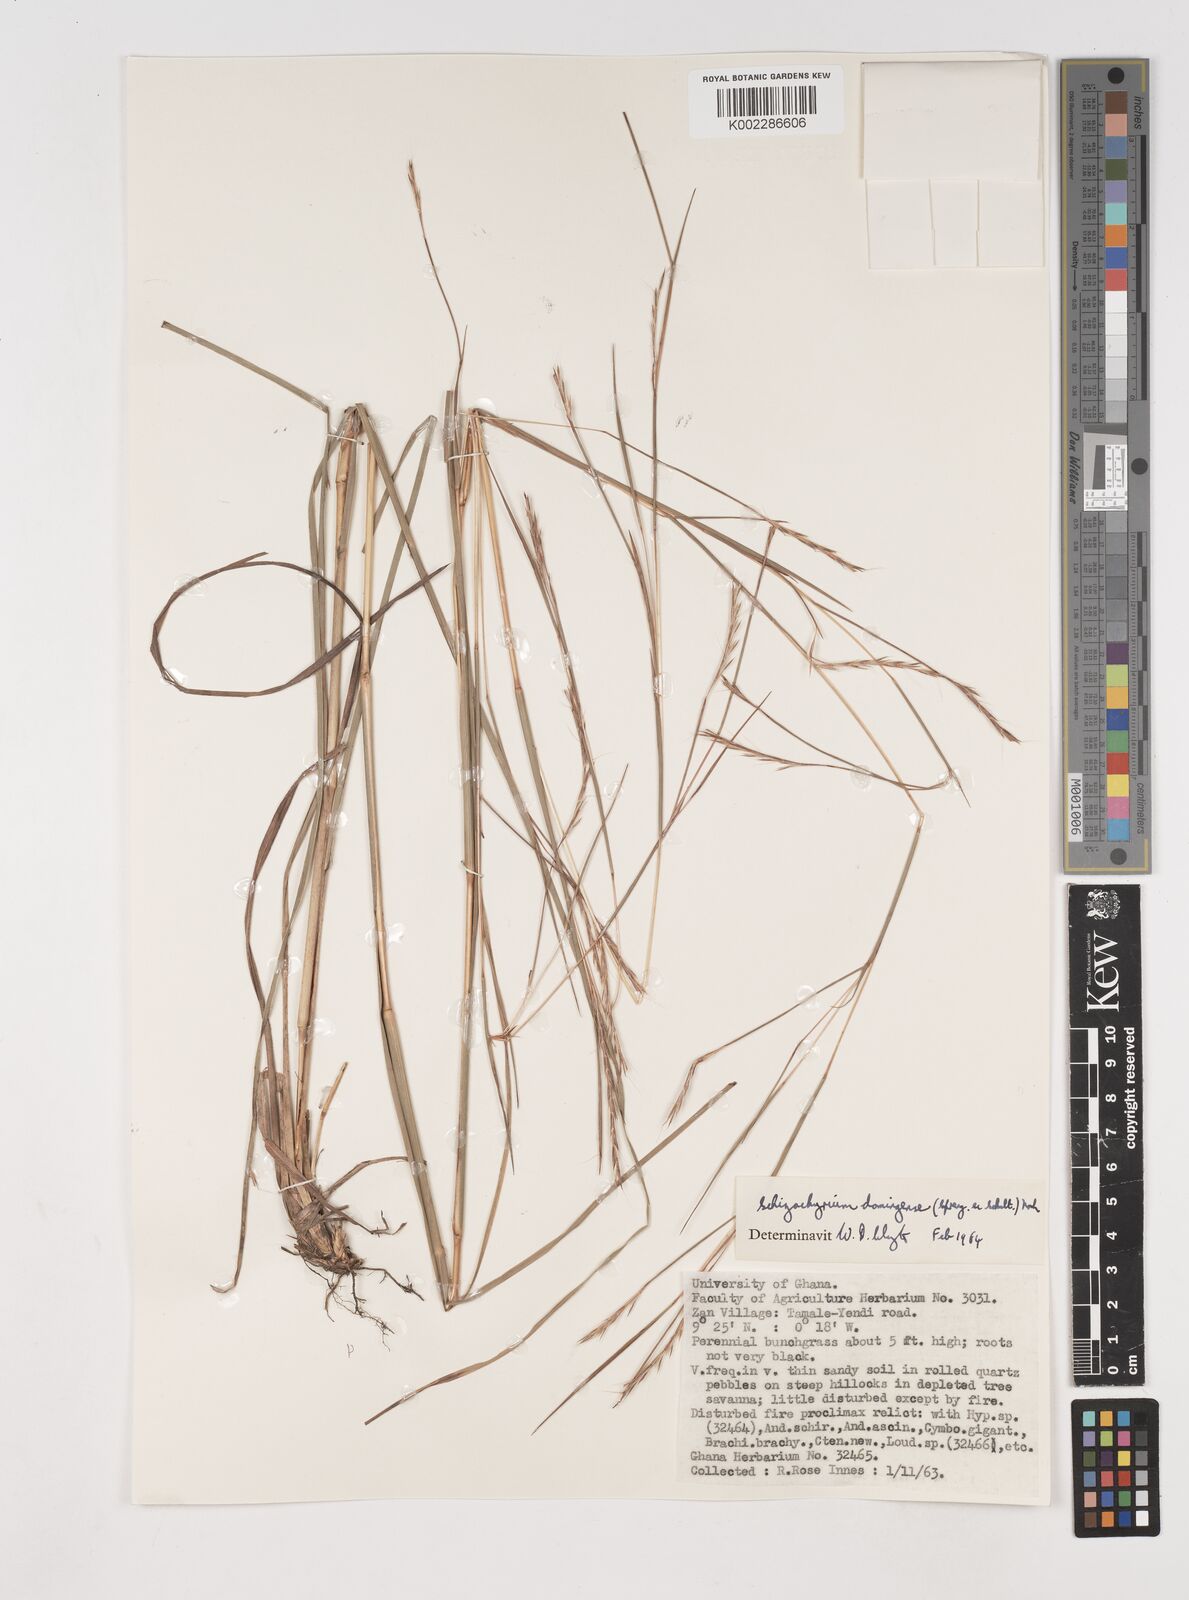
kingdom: Plantae
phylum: Tracheophyta
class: Liliopsida
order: Poales
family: Poaceae
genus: Schizachyrium
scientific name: Schizachyrium sanguineum
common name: Crimson bluestem
